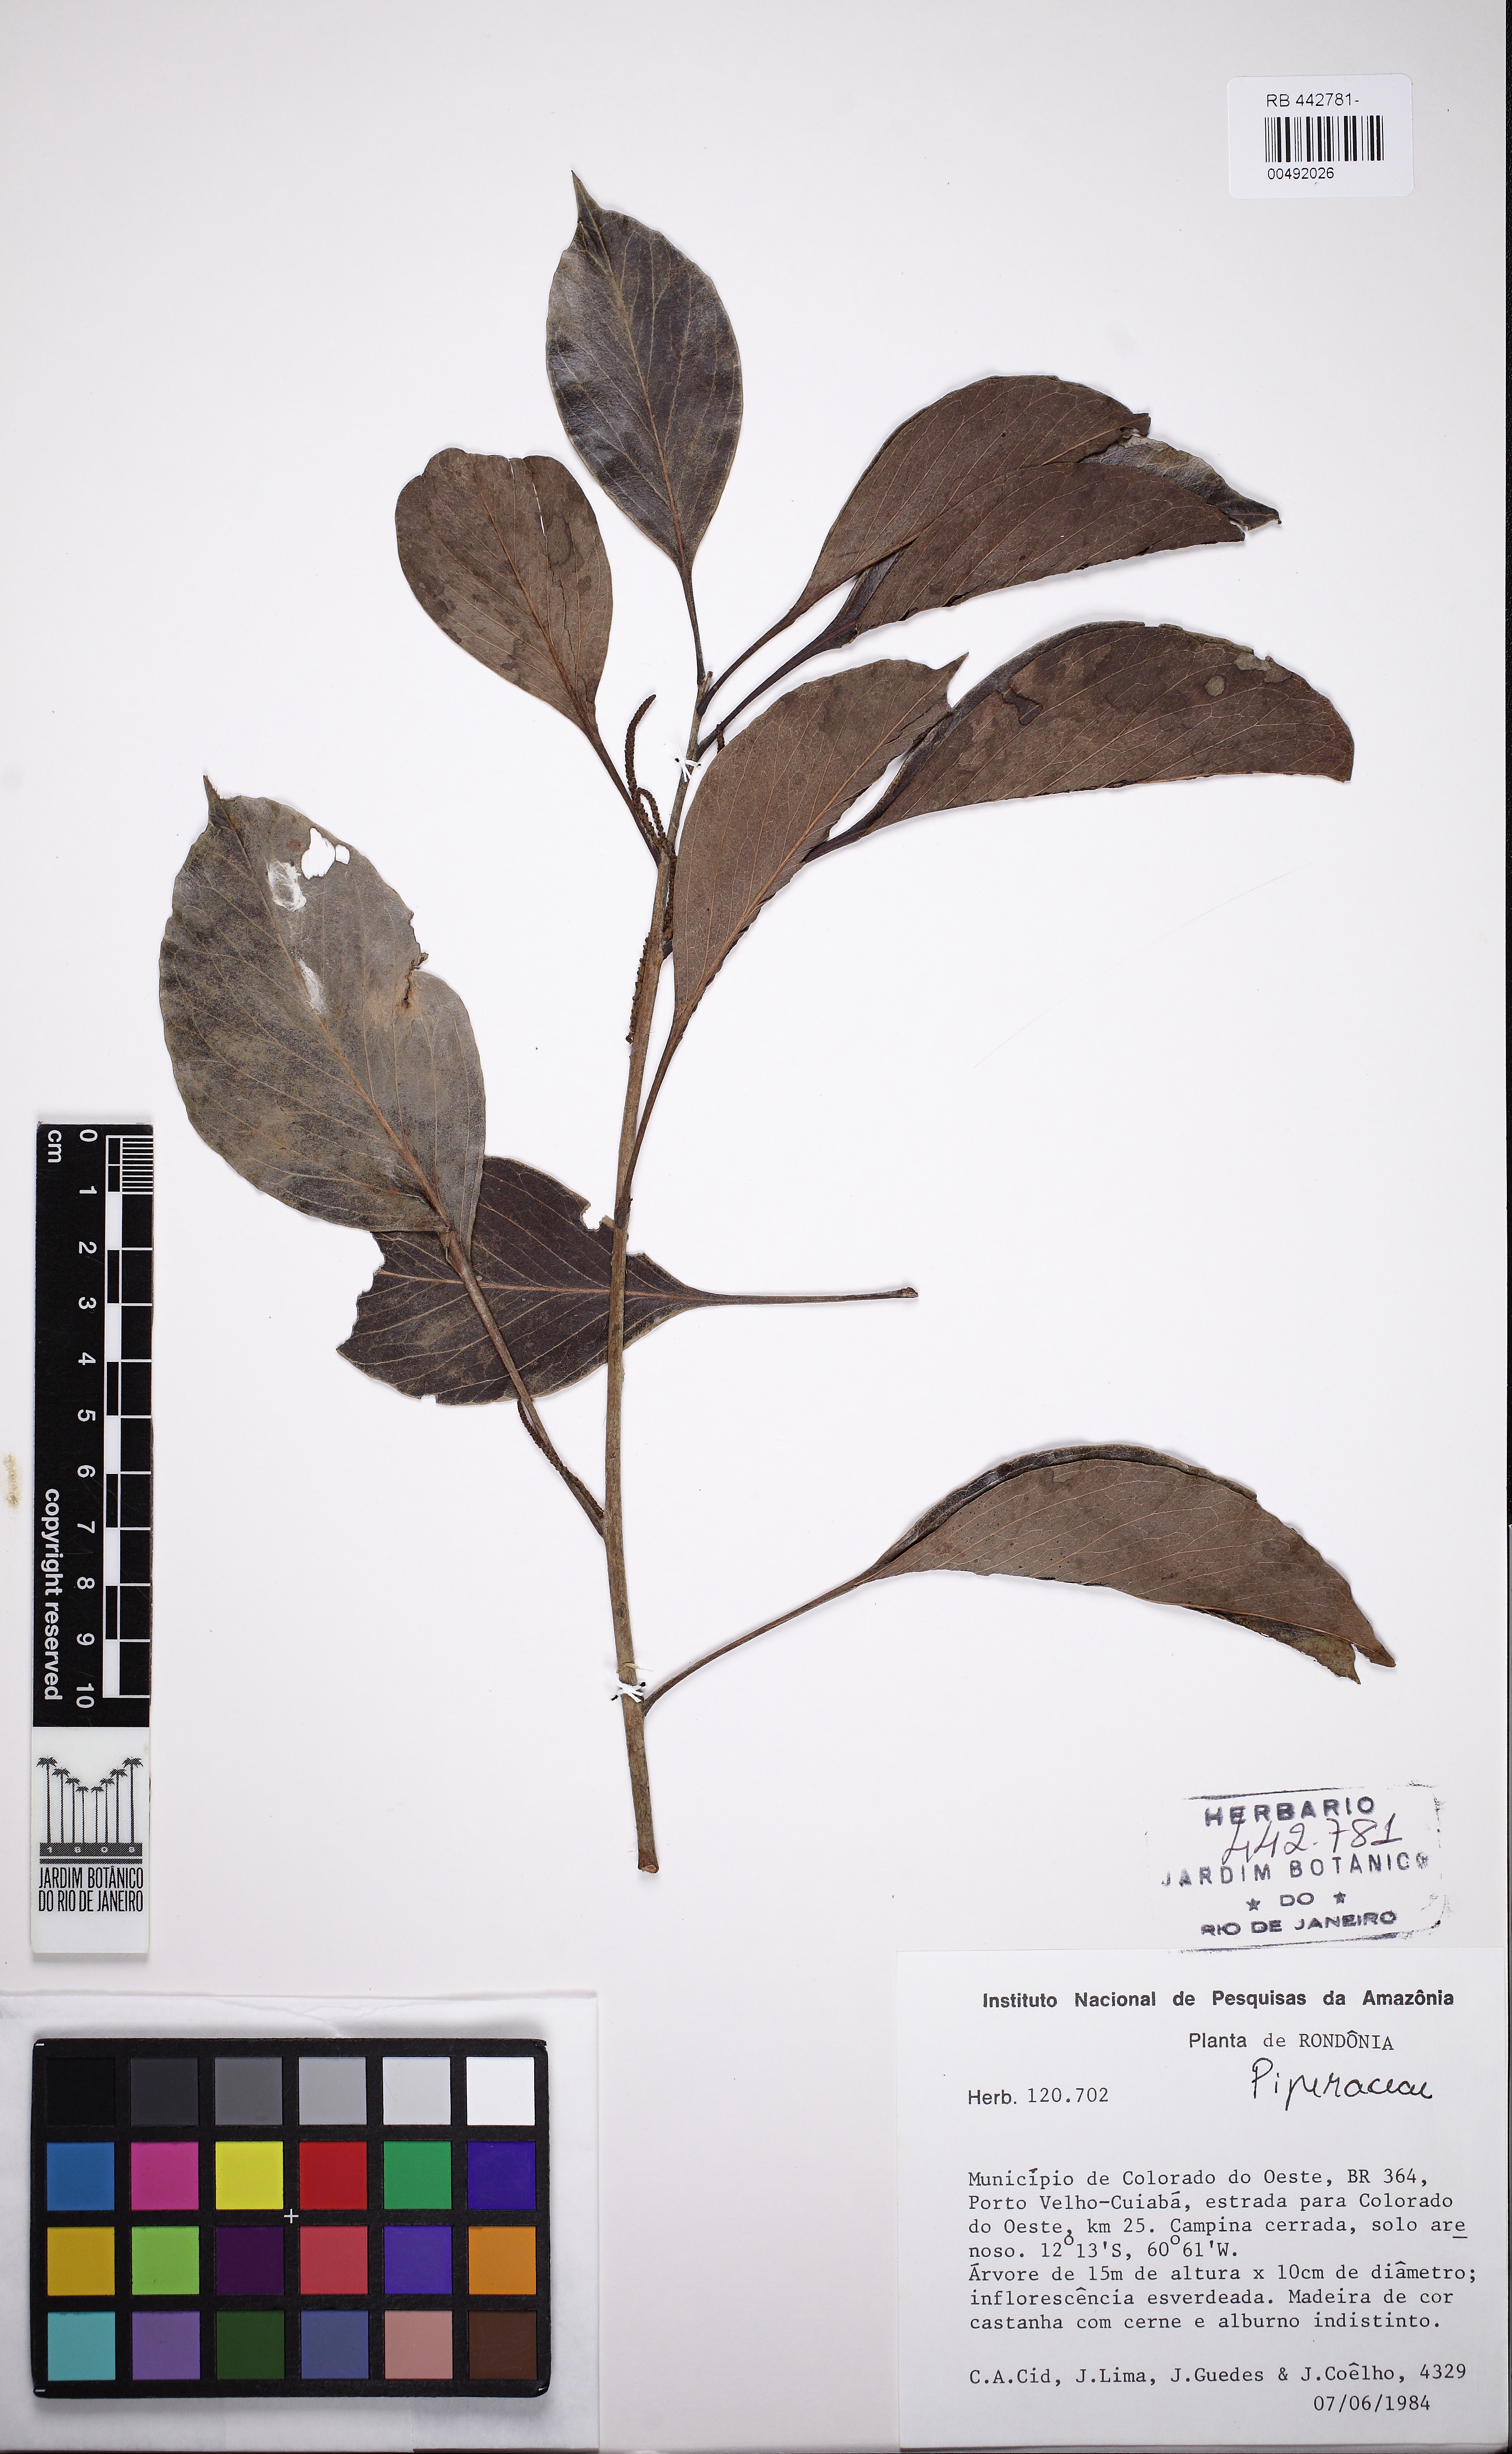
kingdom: Plantae
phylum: Tracheophyta
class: Magnoliopsida
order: Proteales
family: Proteaceae
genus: Roupala
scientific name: Roupala
